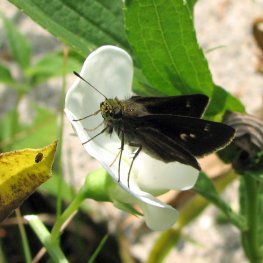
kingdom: Animalia
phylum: Arthropoda
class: Insecta
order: Lepidoptera
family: Hesperiidae
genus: Euphyes
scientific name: Euphyes vestris
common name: Dun Skipper
